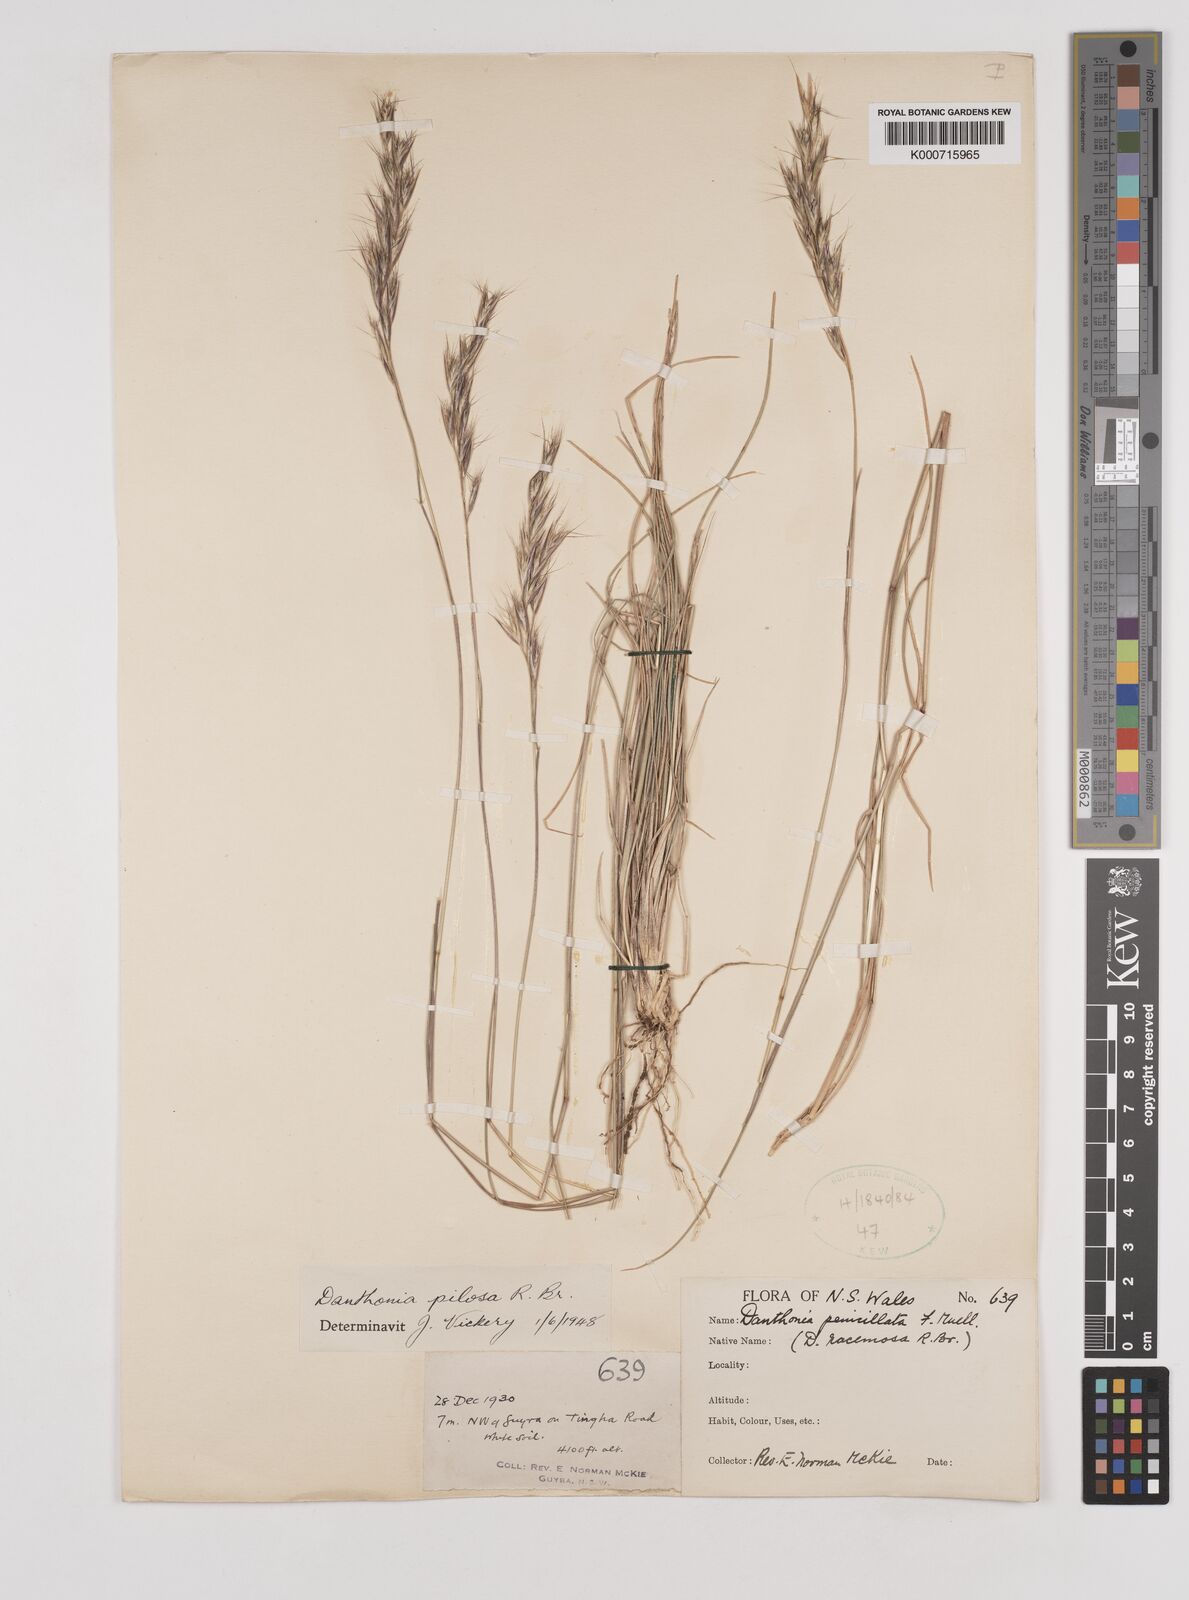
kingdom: Plantae
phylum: Tracheophyta
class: Liliopsida
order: Poales
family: Poaceae
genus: Rytidosperma
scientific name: Rytidosperma pilosum
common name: Hairy wallaby grass
